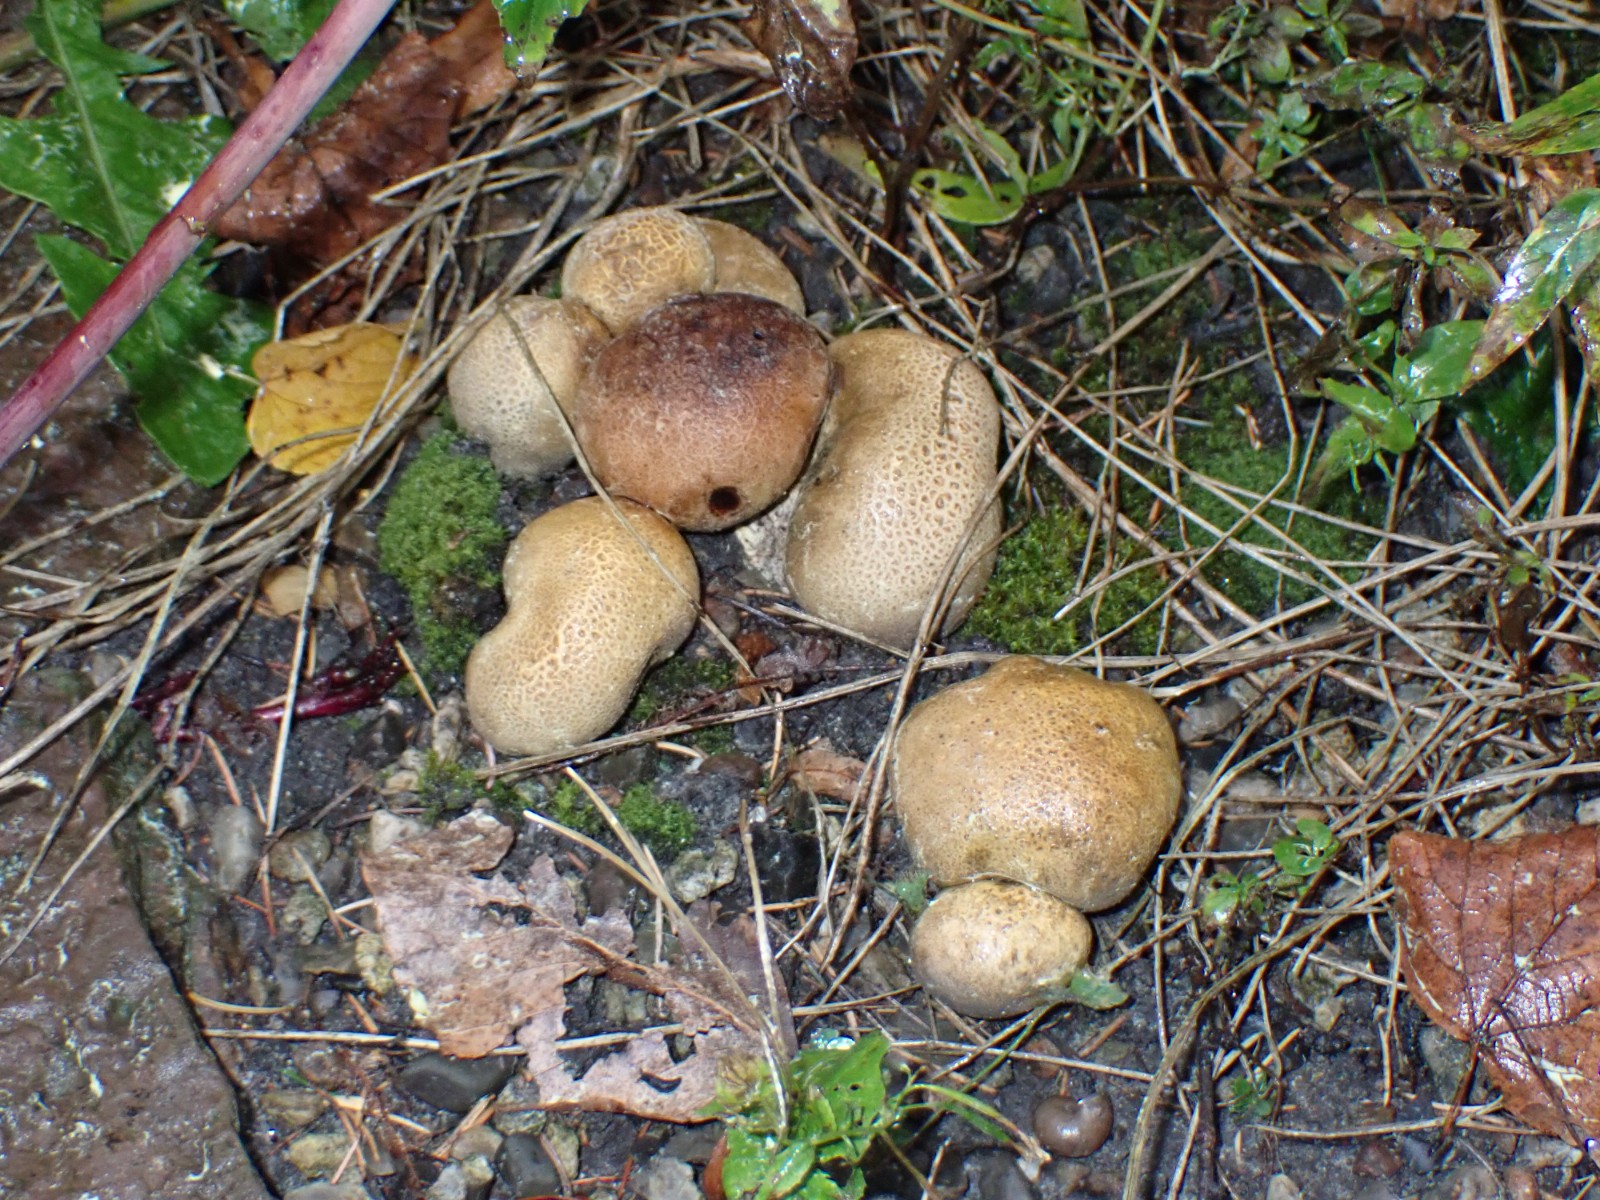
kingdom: Fungi
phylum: Basidiomycota
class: Agaricomycetes
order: Boletales
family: Sclerodermataceae
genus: Scleroderma
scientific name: Scleroderma citrinum
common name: almindelig bruskbold
